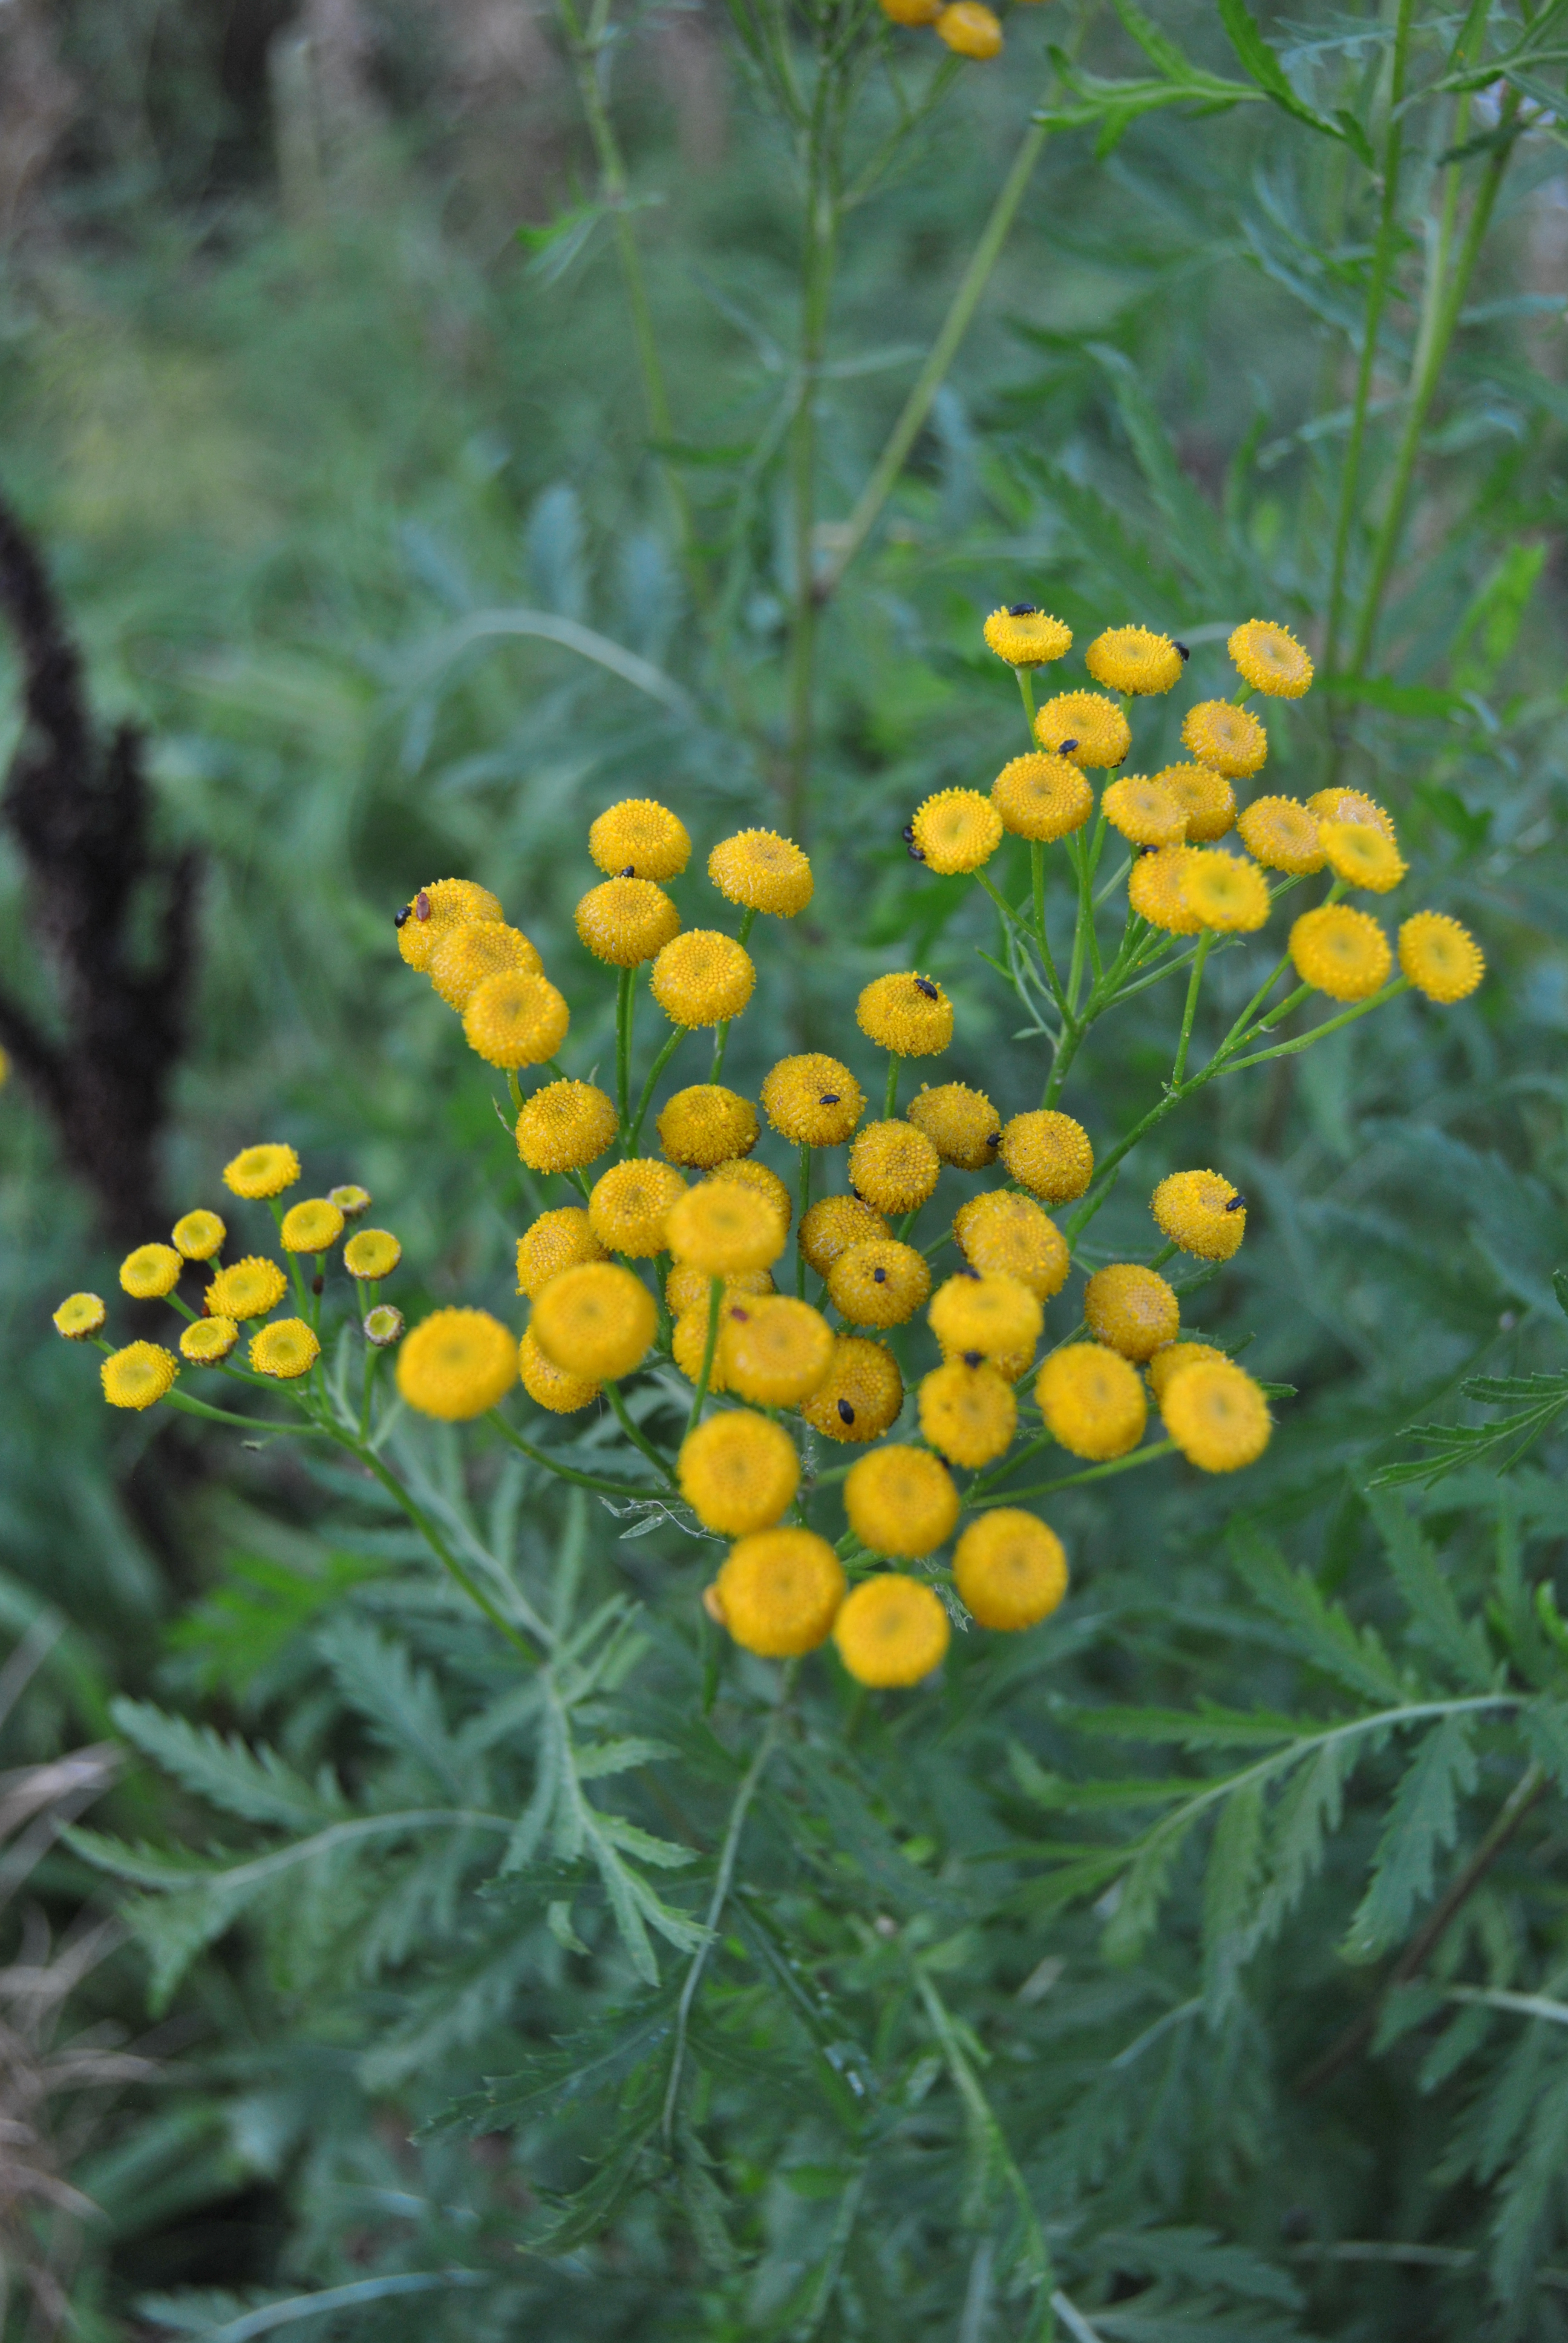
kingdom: Plantae
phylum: Tracheophyta
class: Magnoliopsida
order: Asterales
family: Asteraceae
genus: Tanacetum
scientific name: Tanacetum vulgare
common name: Common tansy
